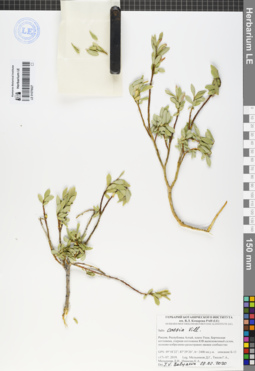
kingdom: Plantae
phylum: Tracheophyta
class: Magnoliopsida
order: Malpighiales
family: Salicaceae
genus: Salix
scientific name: Salix caesia
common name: Blue willow
